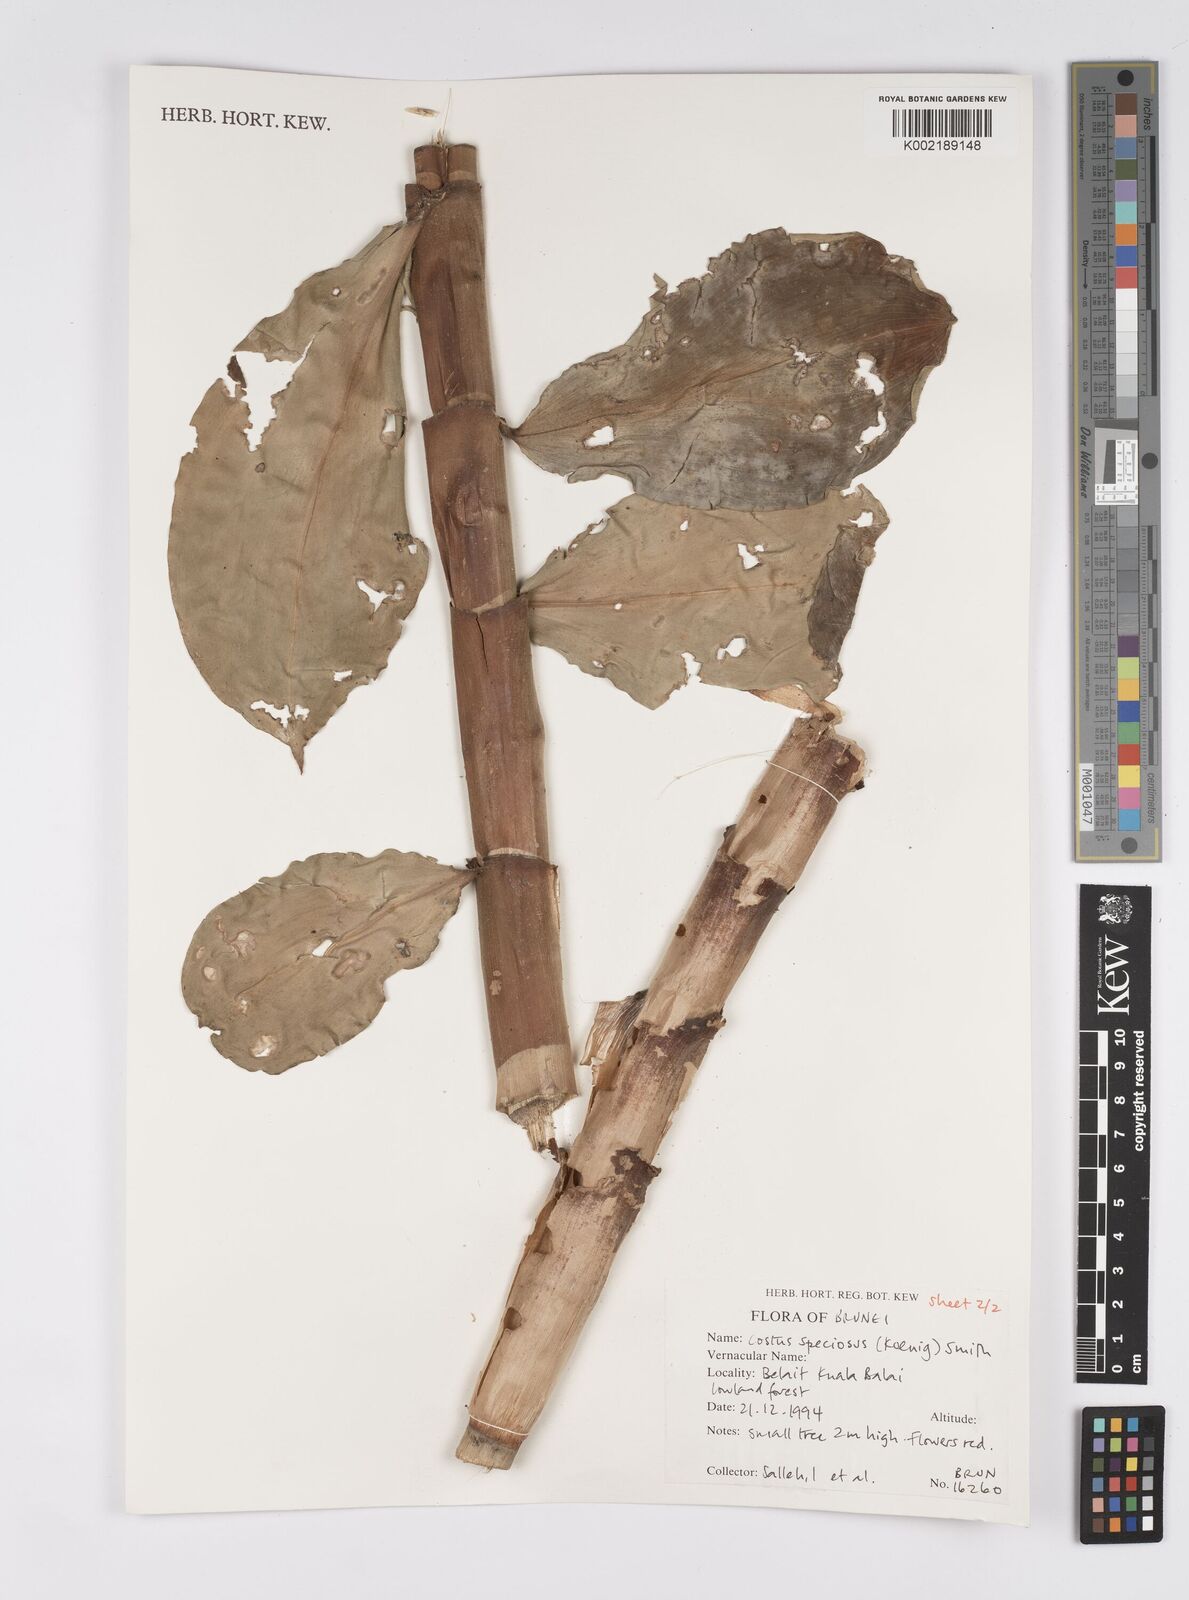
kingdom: Plantae
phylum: Tracheophyta
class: Liliopsida
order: Zingiberales
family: Costaceae
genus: Hellenia
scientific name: Hellenia speciosa
